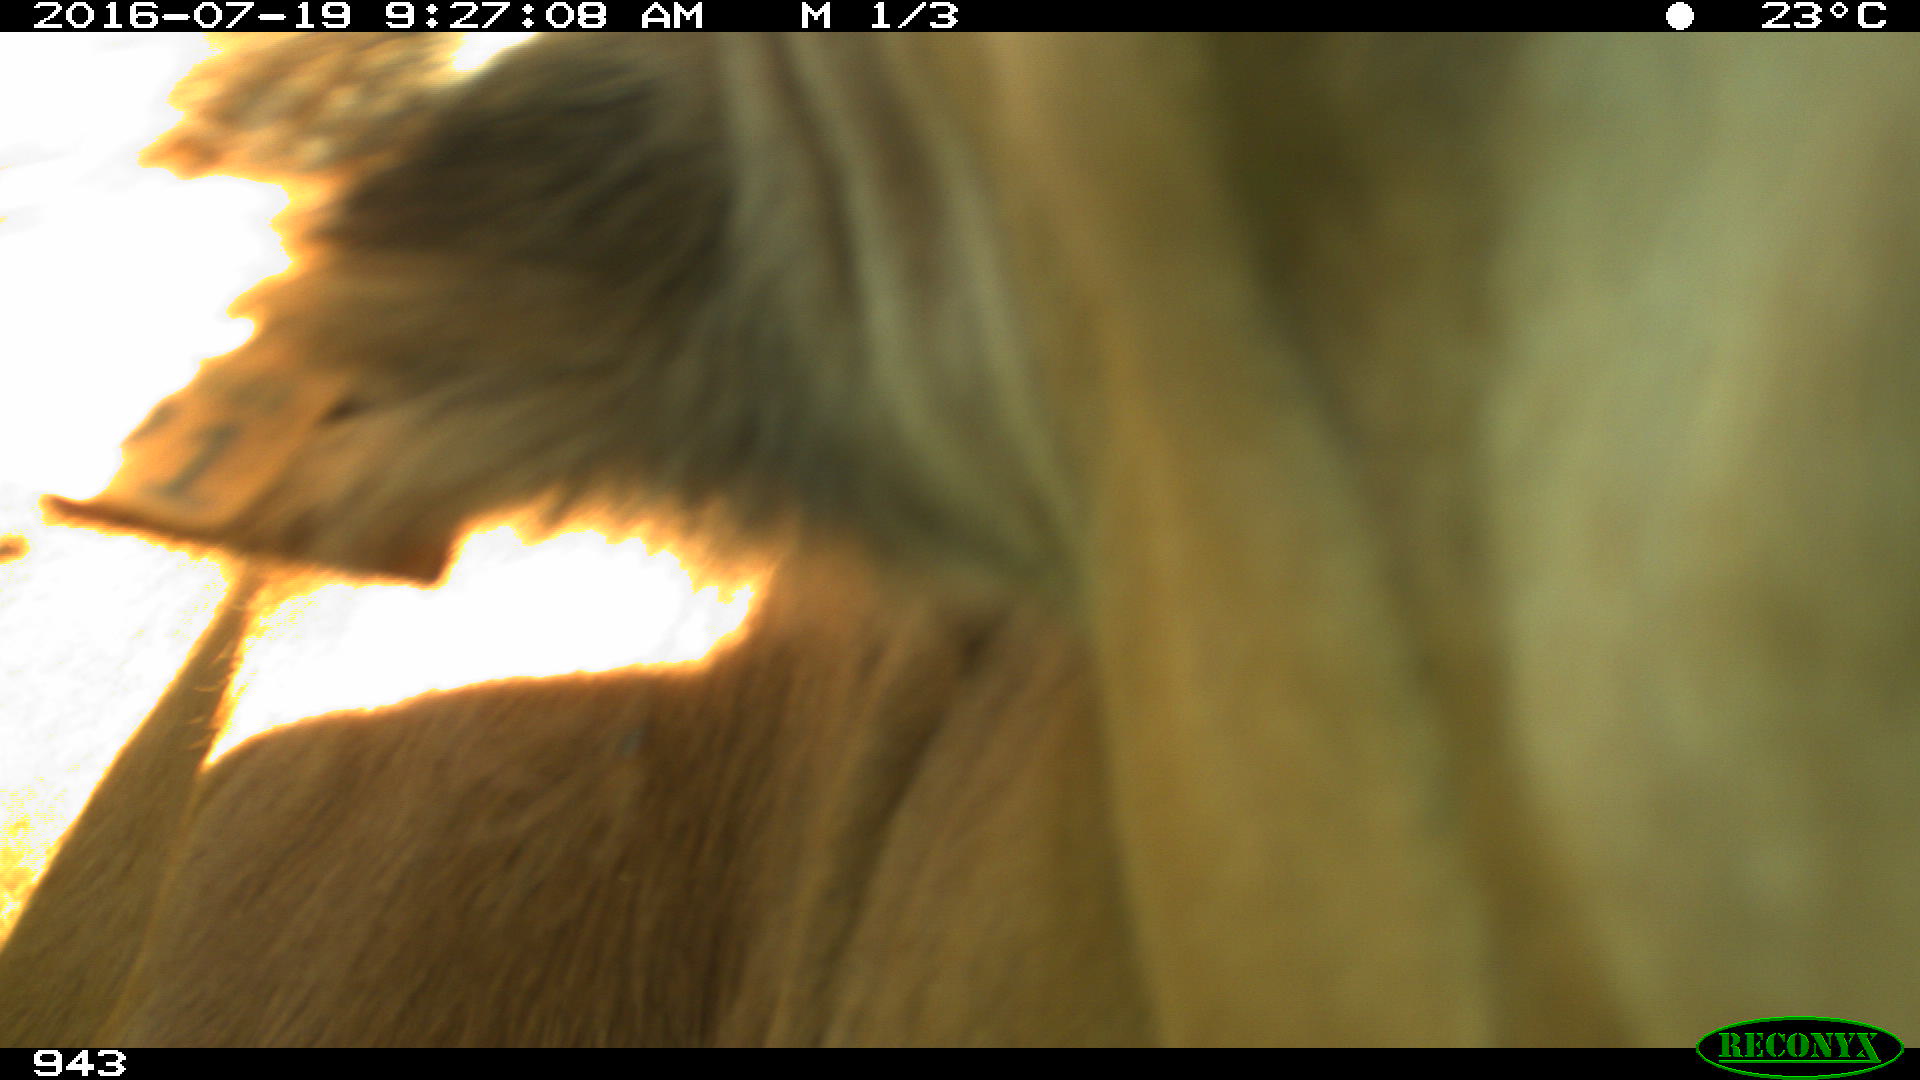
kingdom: Animalia
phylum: Chordata
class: Mammalia
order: Artiodactyla
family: Bovidae
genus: Bos
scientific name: Bos taurus
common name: Domesticated cattle
